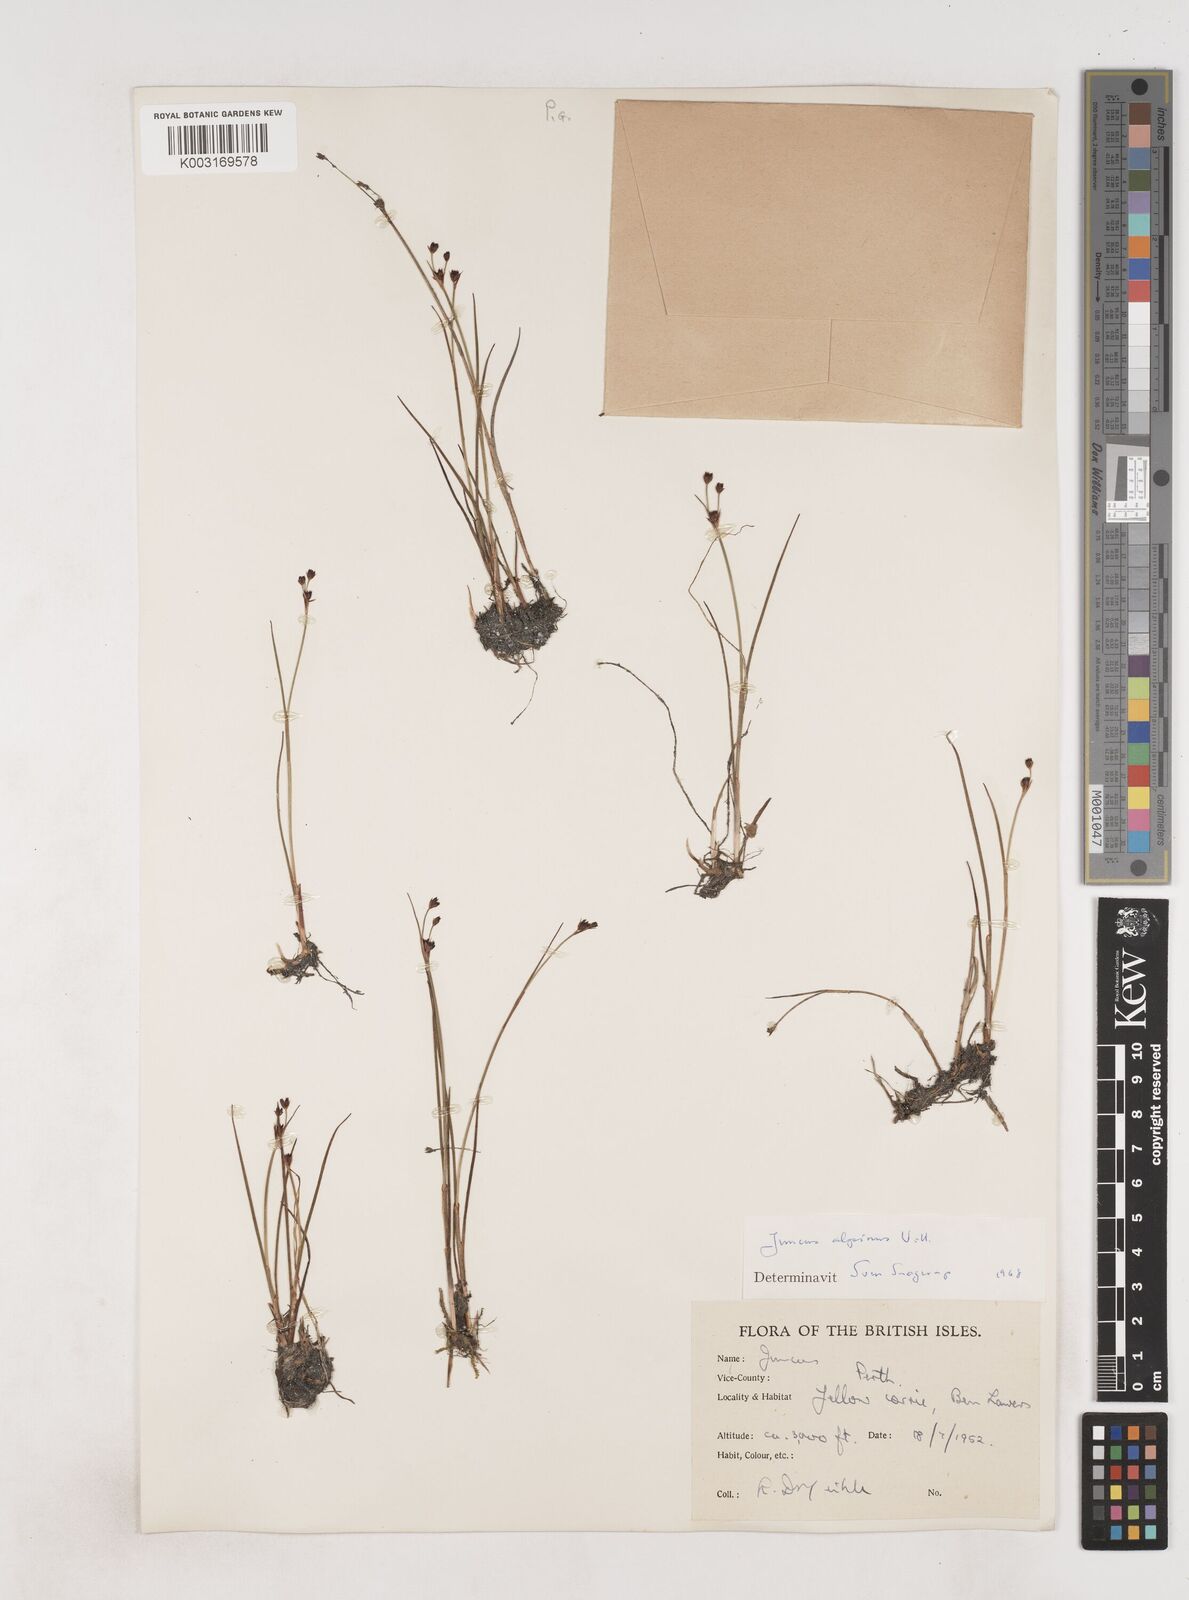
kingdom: Plantae
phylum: Tracheophyta
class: Liliopsida
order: Poales
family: Juncaceae
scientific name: Juncaceae
